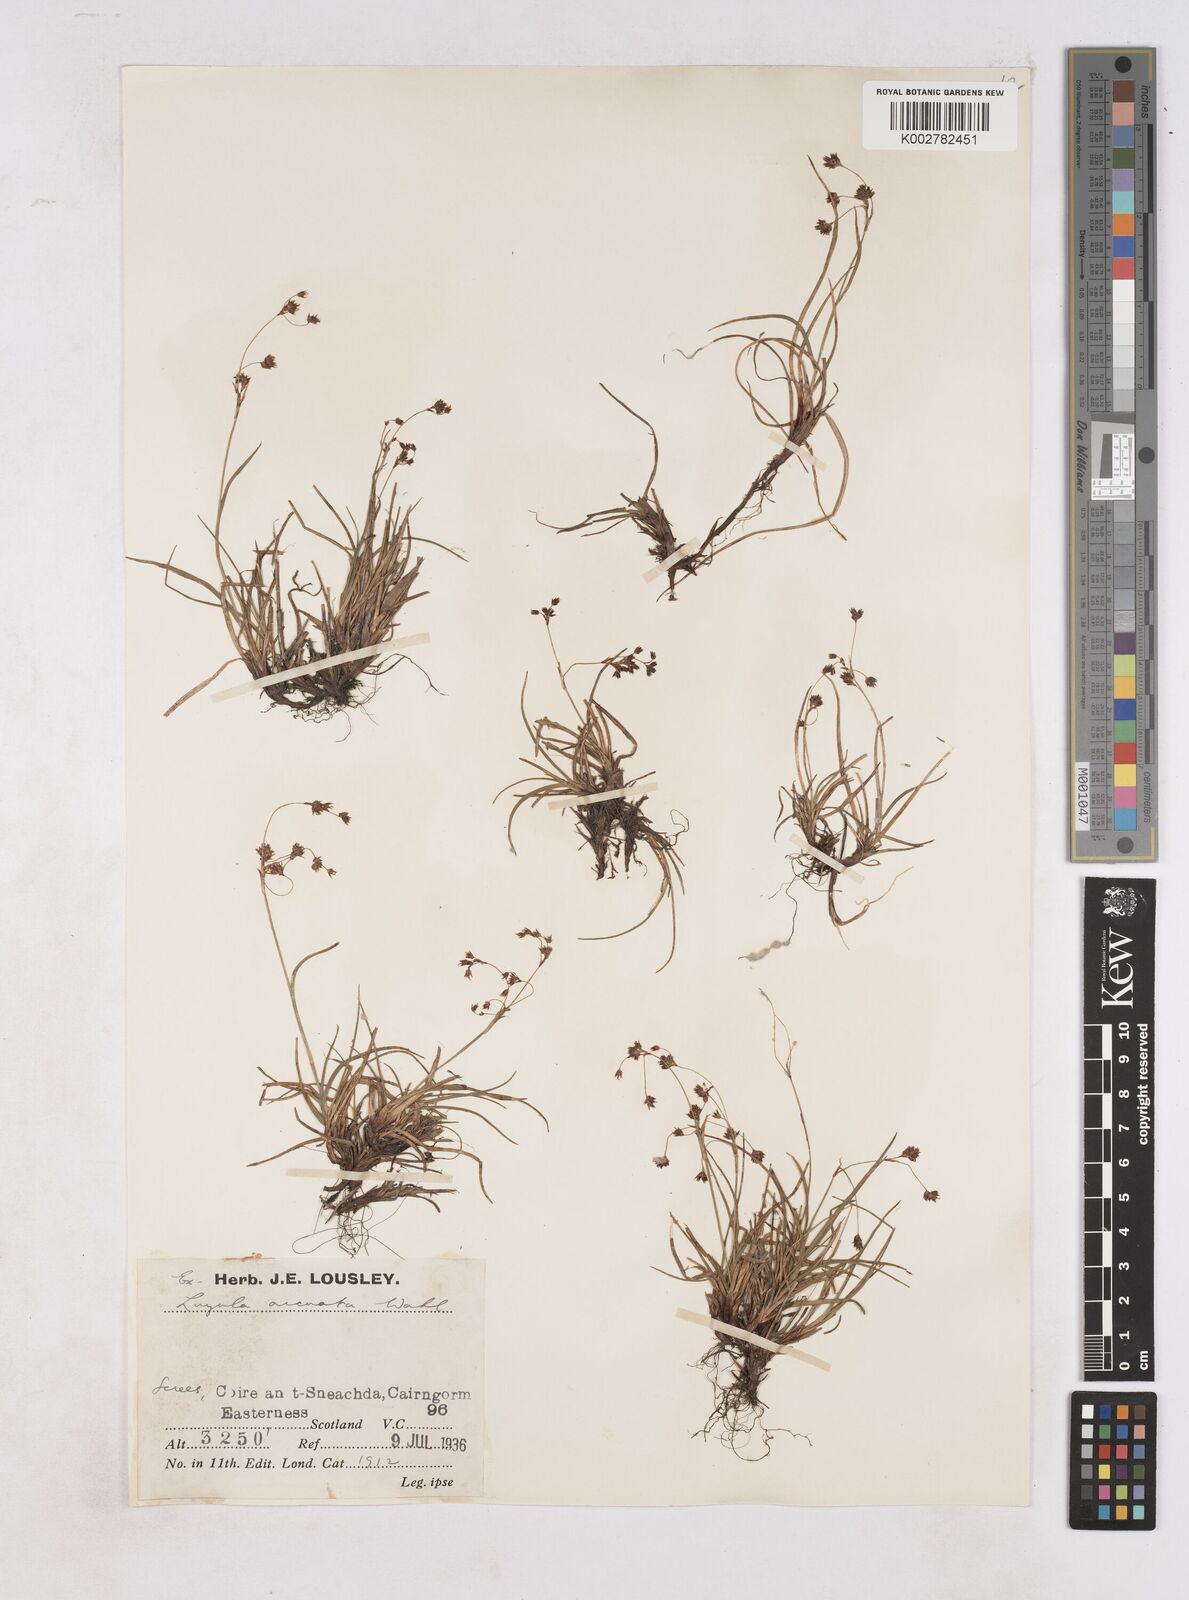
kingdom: Plantae
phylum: Tracheophyta
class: Liliopsida
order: Poales
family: Juncaceae
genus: Luzula
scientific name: Luzula arcuata
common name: Curved wood-rush
